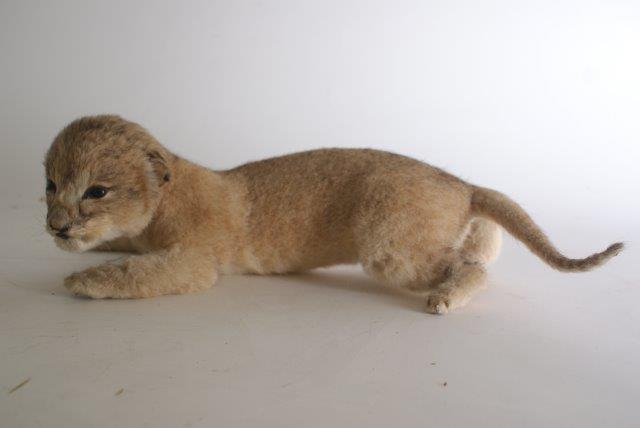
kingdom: Animalia
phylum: Chordata
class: Mammalia
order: Carnivora
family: Felidae
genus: Panthera
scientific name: Panthera leo
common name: Lion
